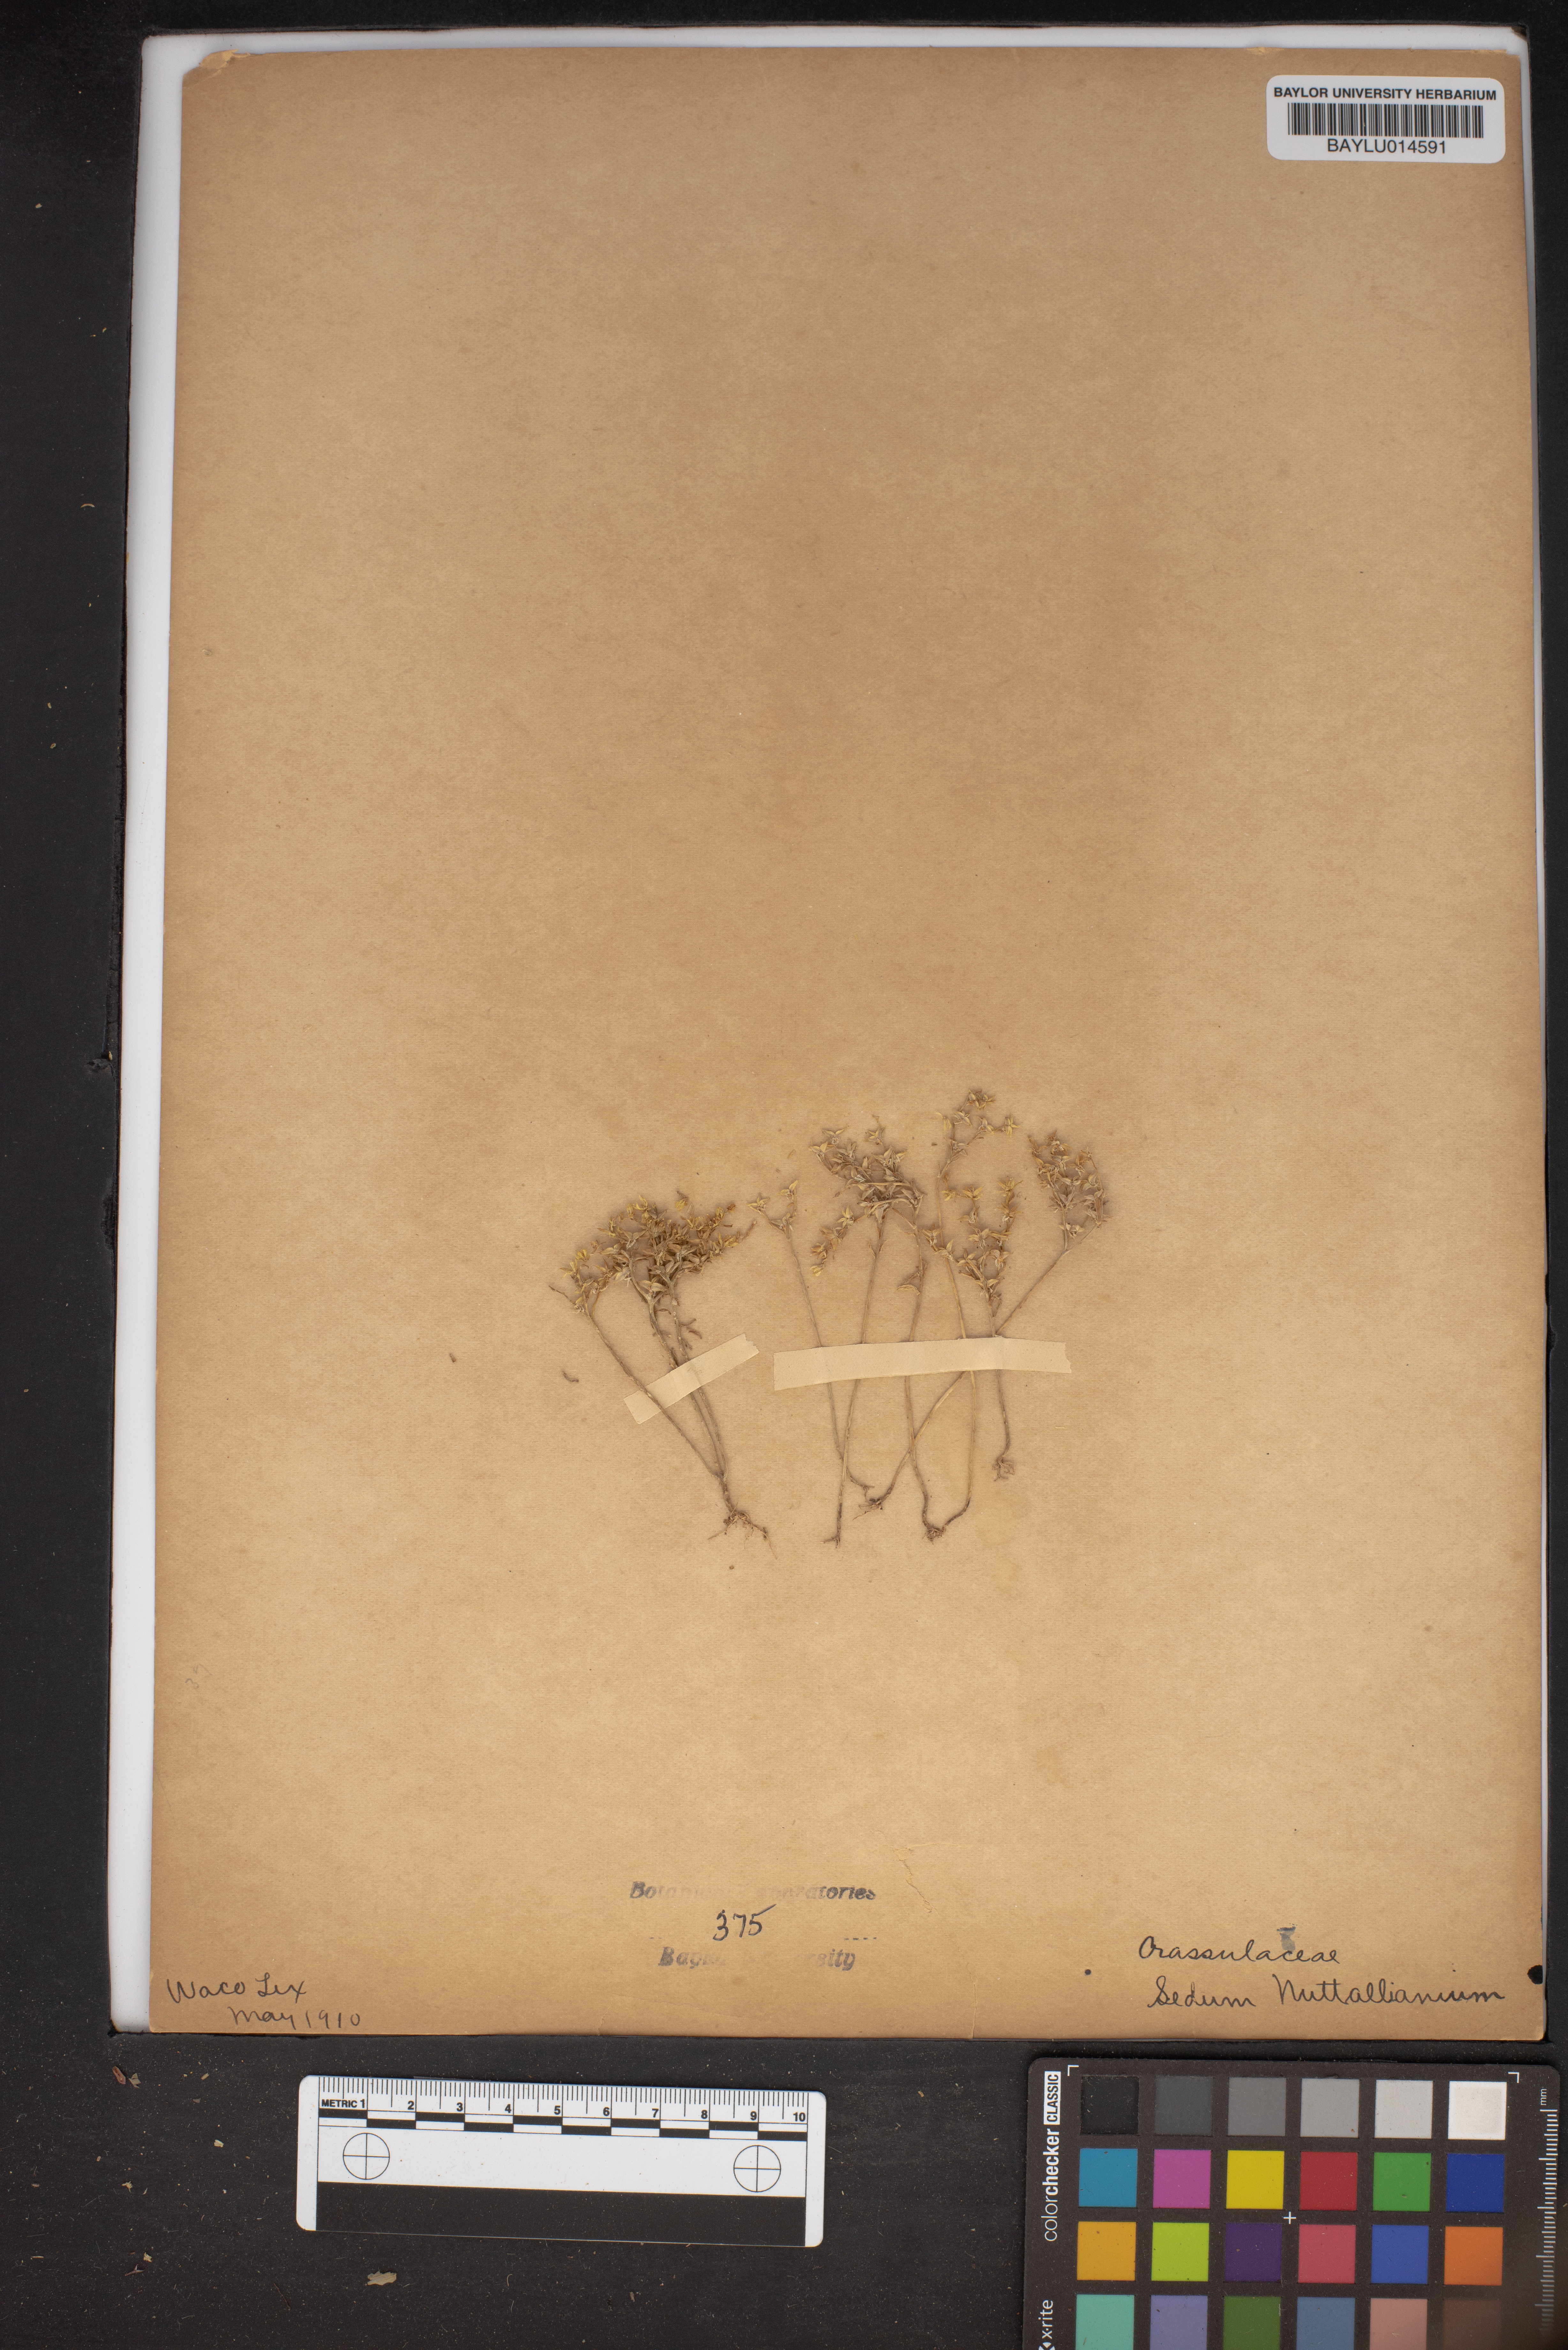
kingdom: Plantae
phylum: Tracheophyta
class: Magnoliopsida
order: Saxifragales
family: Crassulaceae
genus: Sedum
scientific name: Sedum nuttallii
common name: Yellow stonecrop
